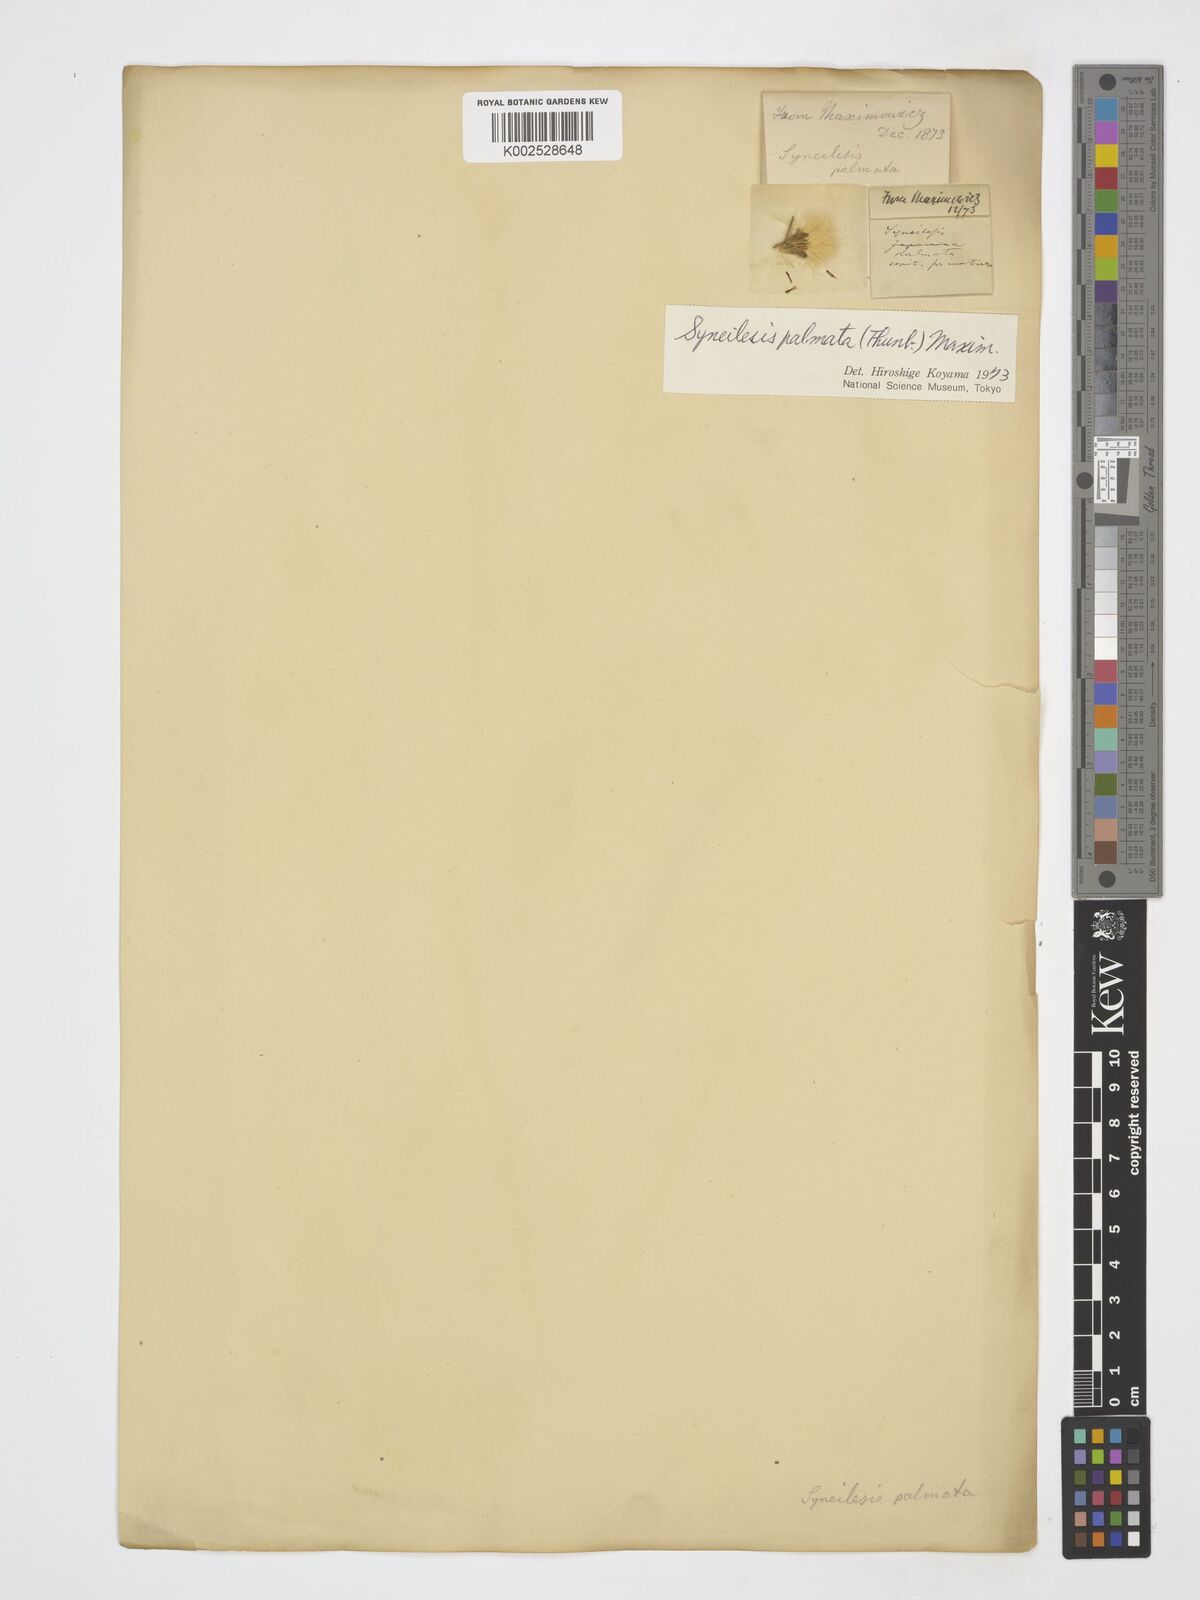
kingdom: Plantae
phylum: Tracheophyta
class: Magnoliopsida
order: Asterales
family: Asteraceae
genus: Syneilesis
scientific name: Syneilesis palmata
